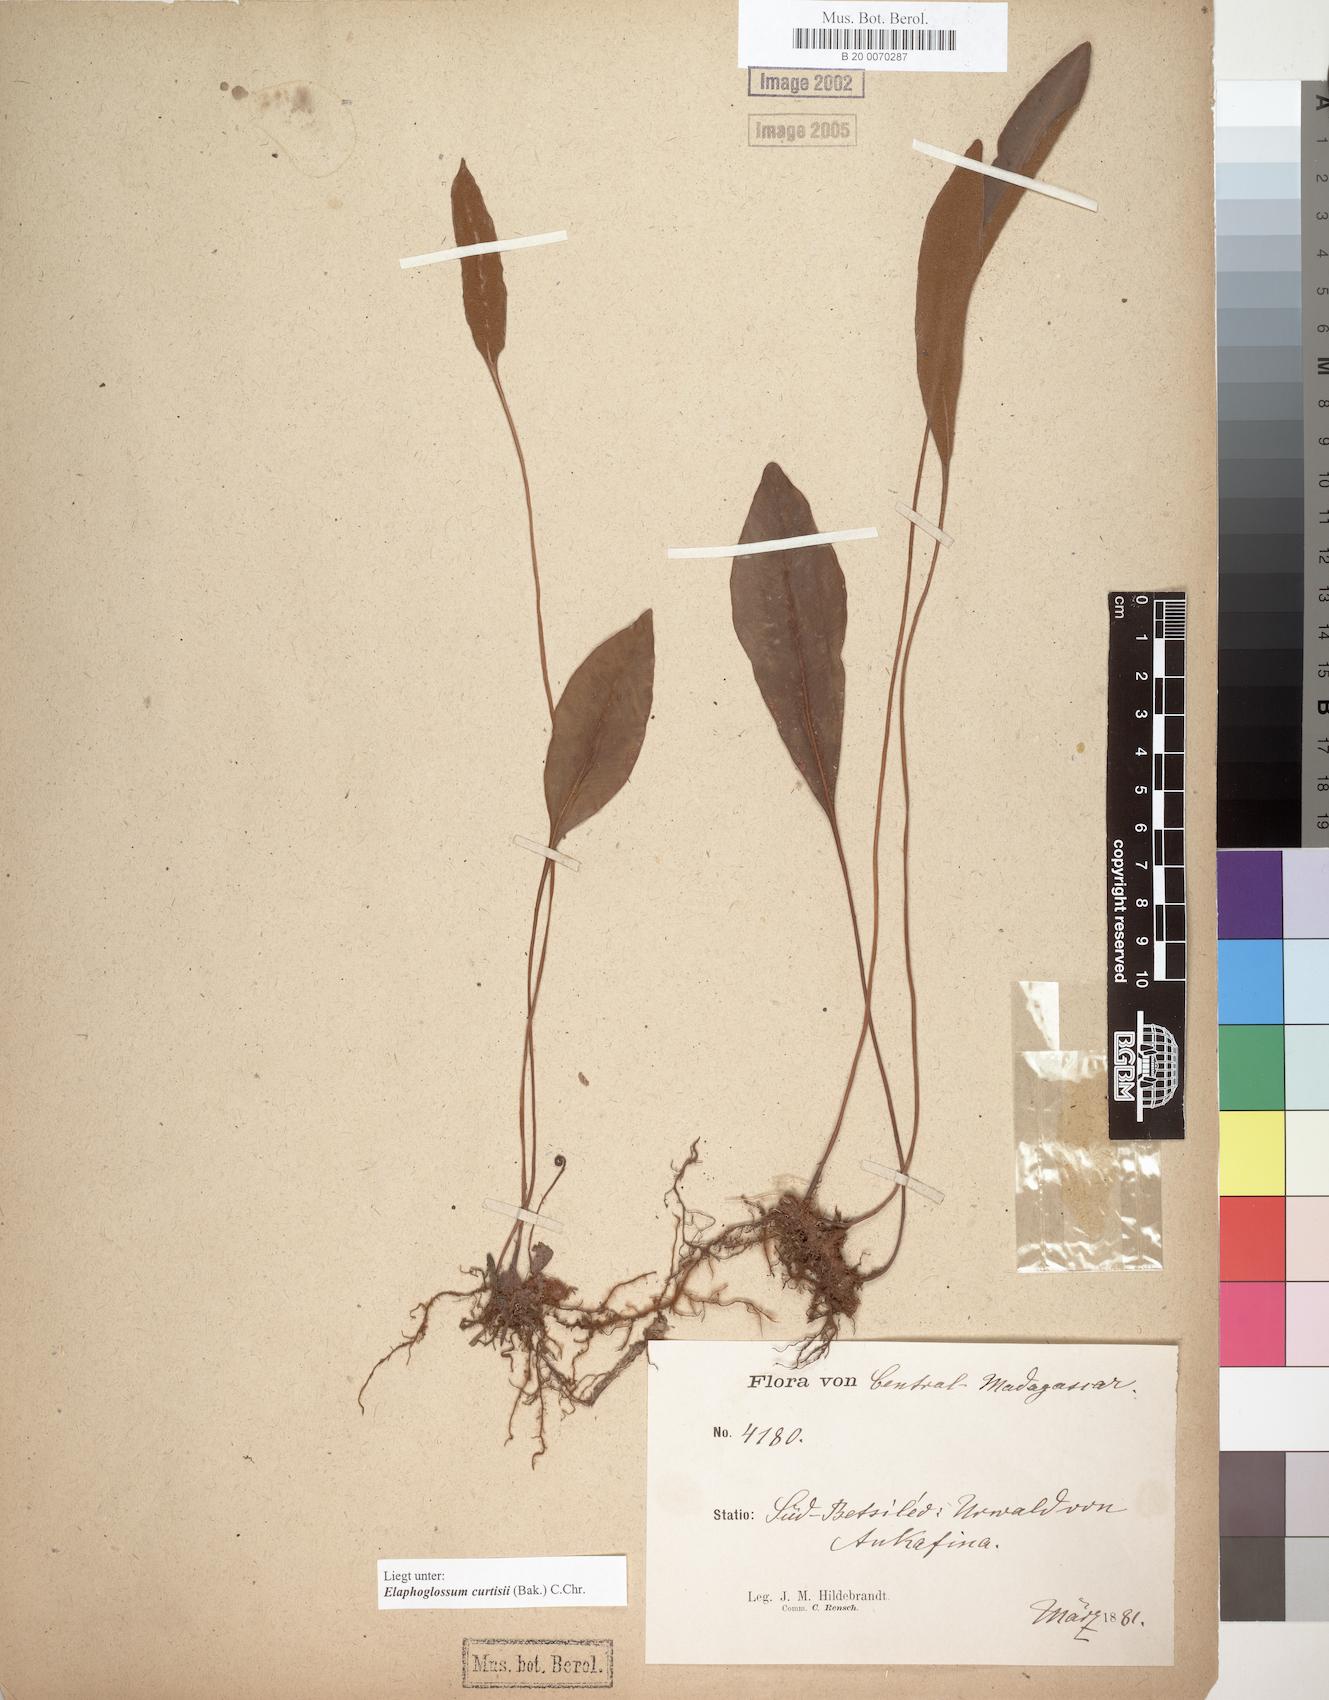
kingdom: Plantae
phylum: Tracheophyta
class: Polypodiopsida
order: Polypodiales
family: Dryopteridaceae
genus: Elaphoglossum
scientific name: Elaphoglossum lepervanchii
